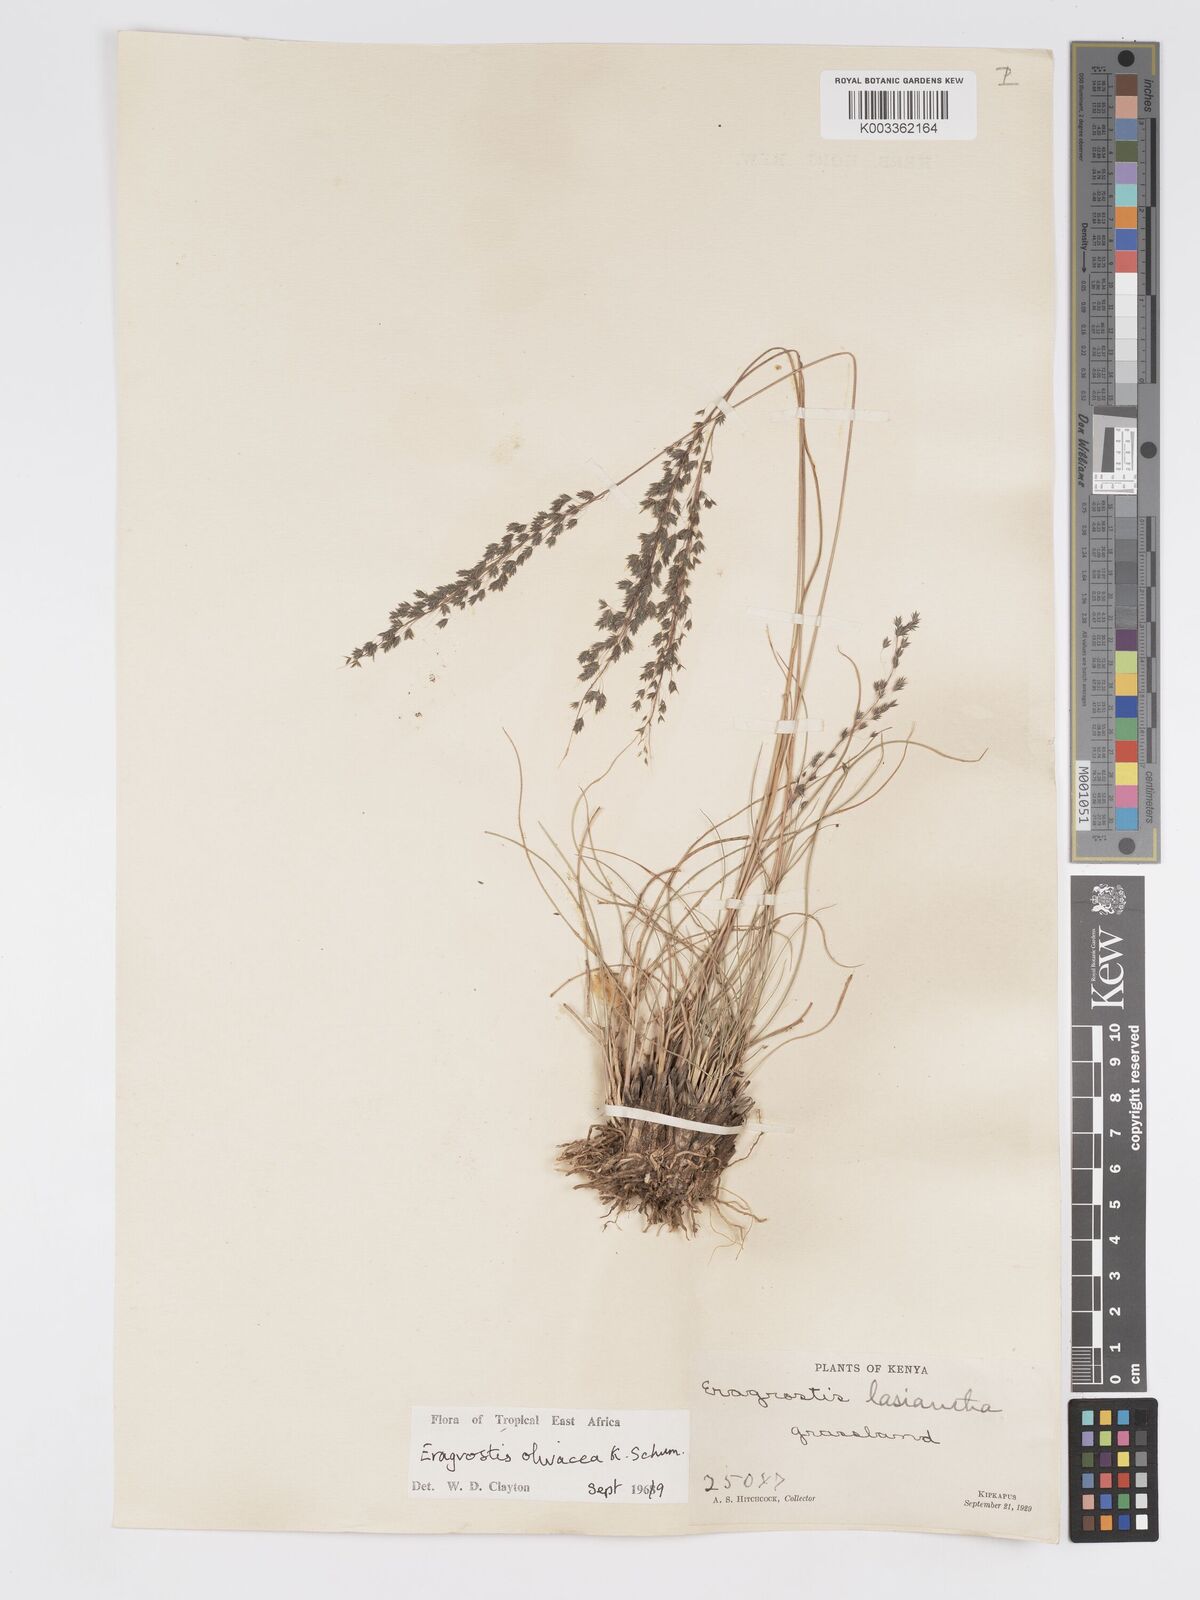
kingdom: Plantae
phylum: Tracheophyta
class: Liliopsida
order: Poales
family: Poaceae
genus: Eragrostis
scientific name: Eragrostis olivacea
